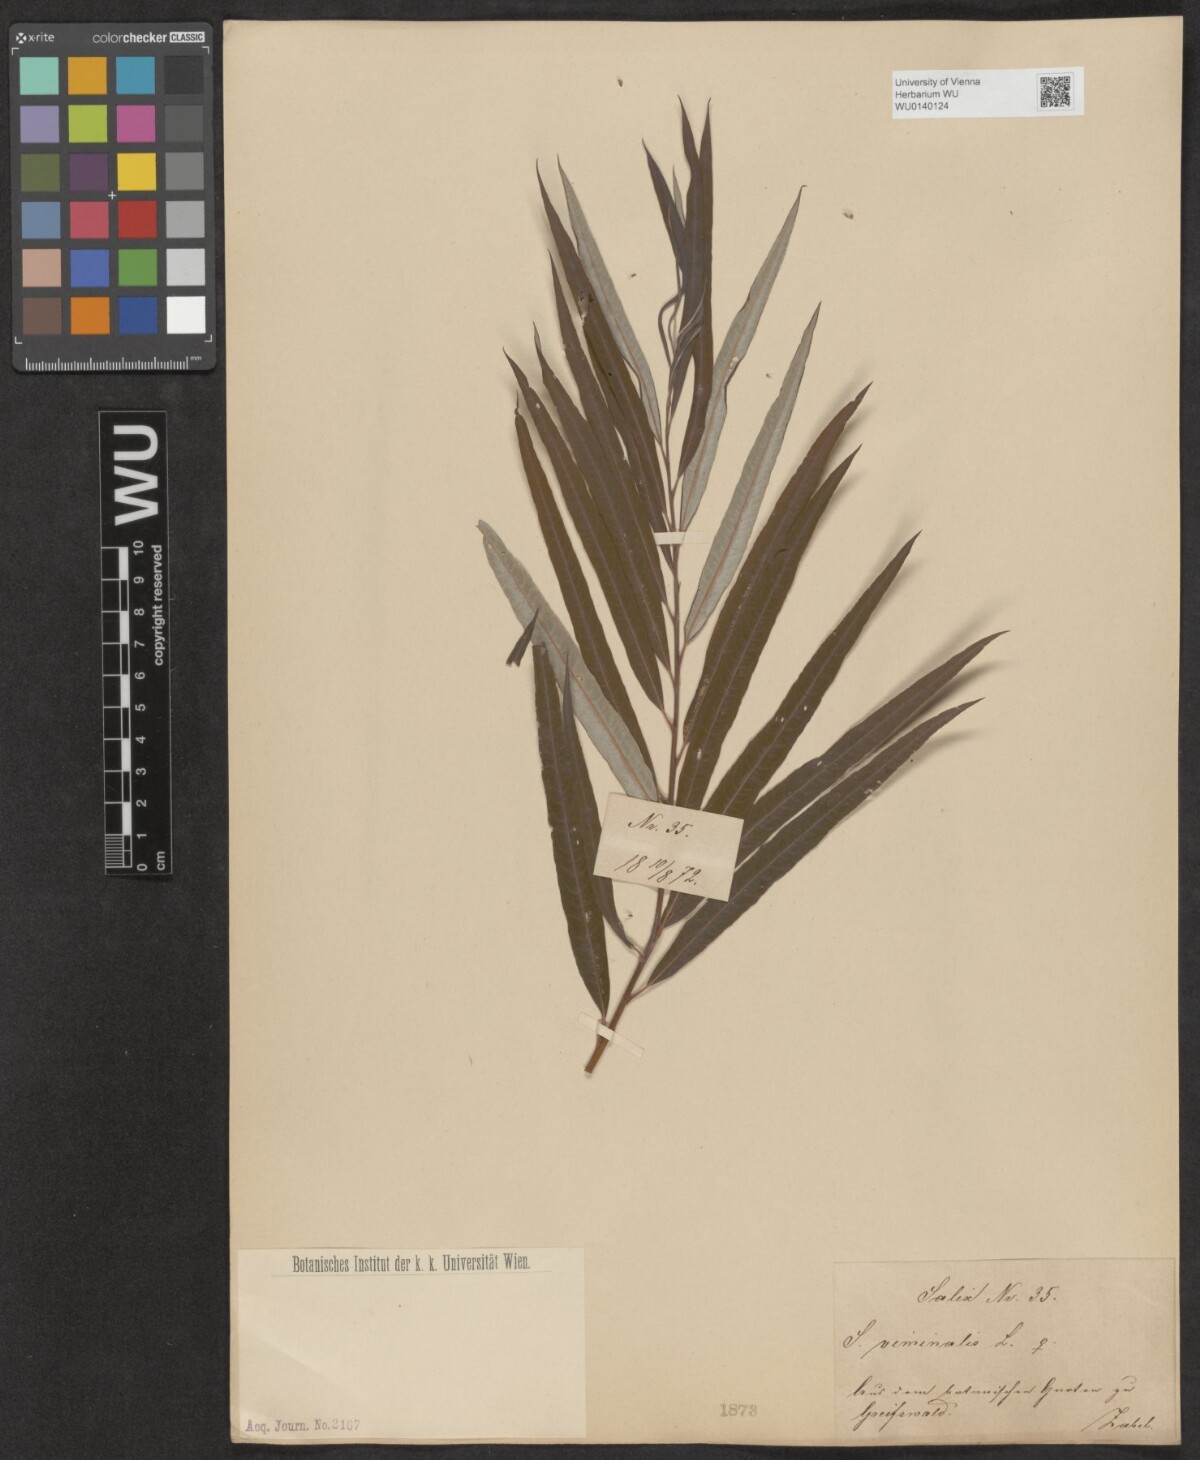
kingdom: Plantae
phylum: Tracheophyta
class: Magnoliopsida
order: Malpighiales
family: Salicaceae
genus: Salix
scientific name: Salix viminalis
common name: Osier
